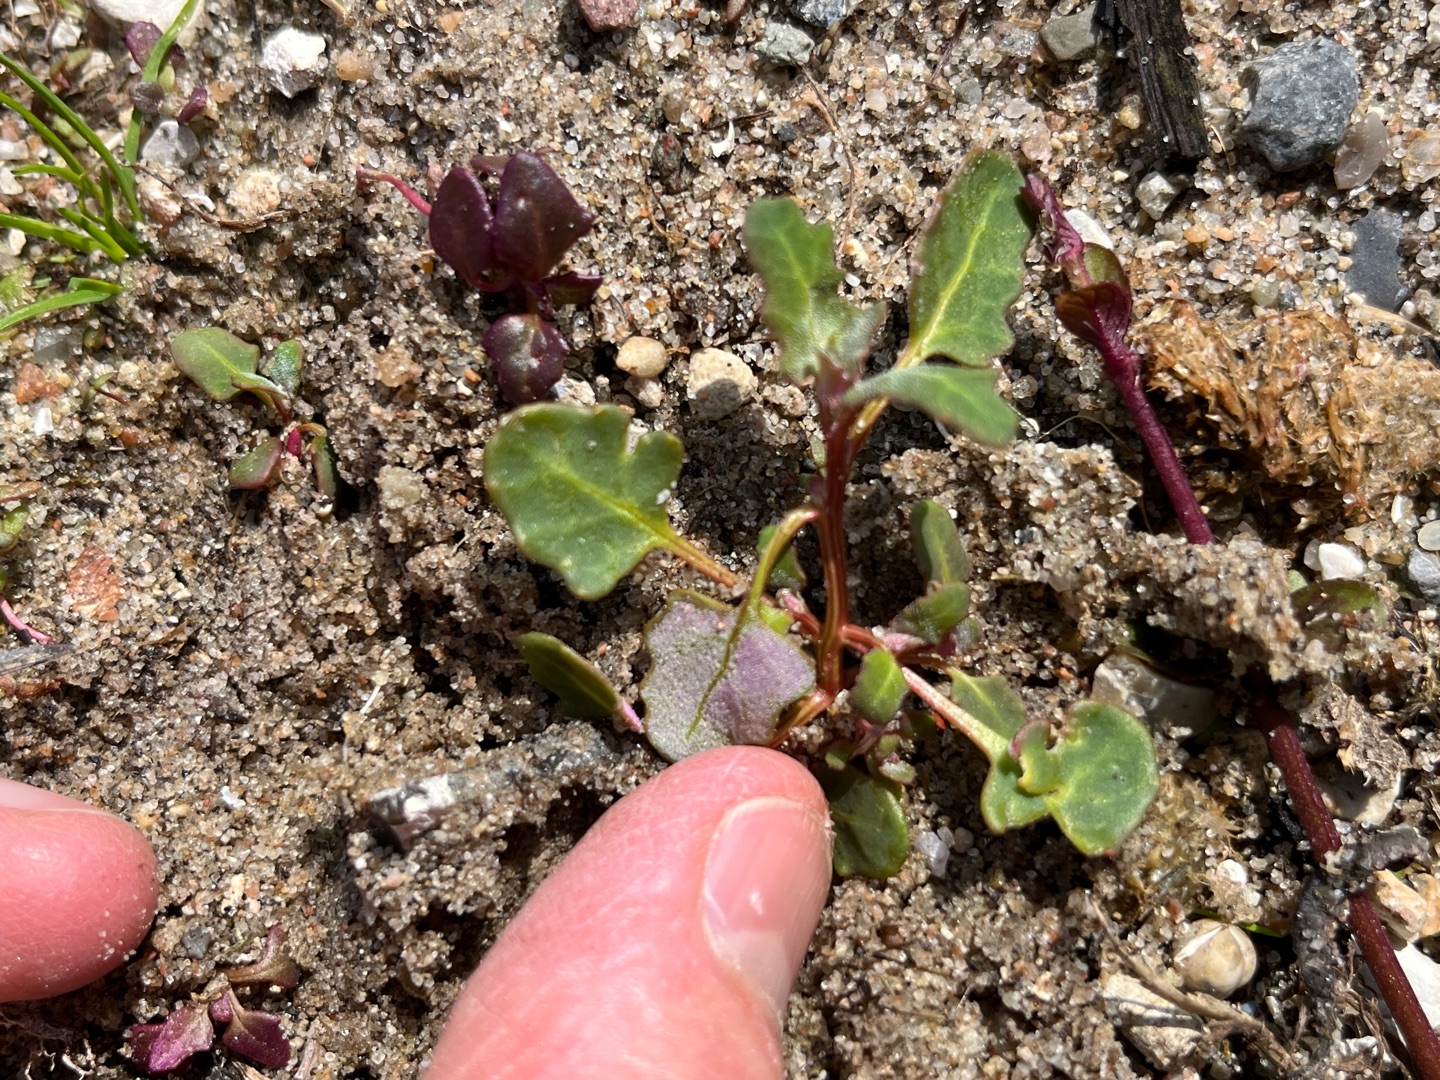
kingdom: Plantae
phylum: Tracheophyta
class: Magnoliopsida
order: Caryophyllales
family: Amaranthaceae
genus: Oxybasis
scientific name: Oxybasis glauca
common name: Blågrøn gåsefod
